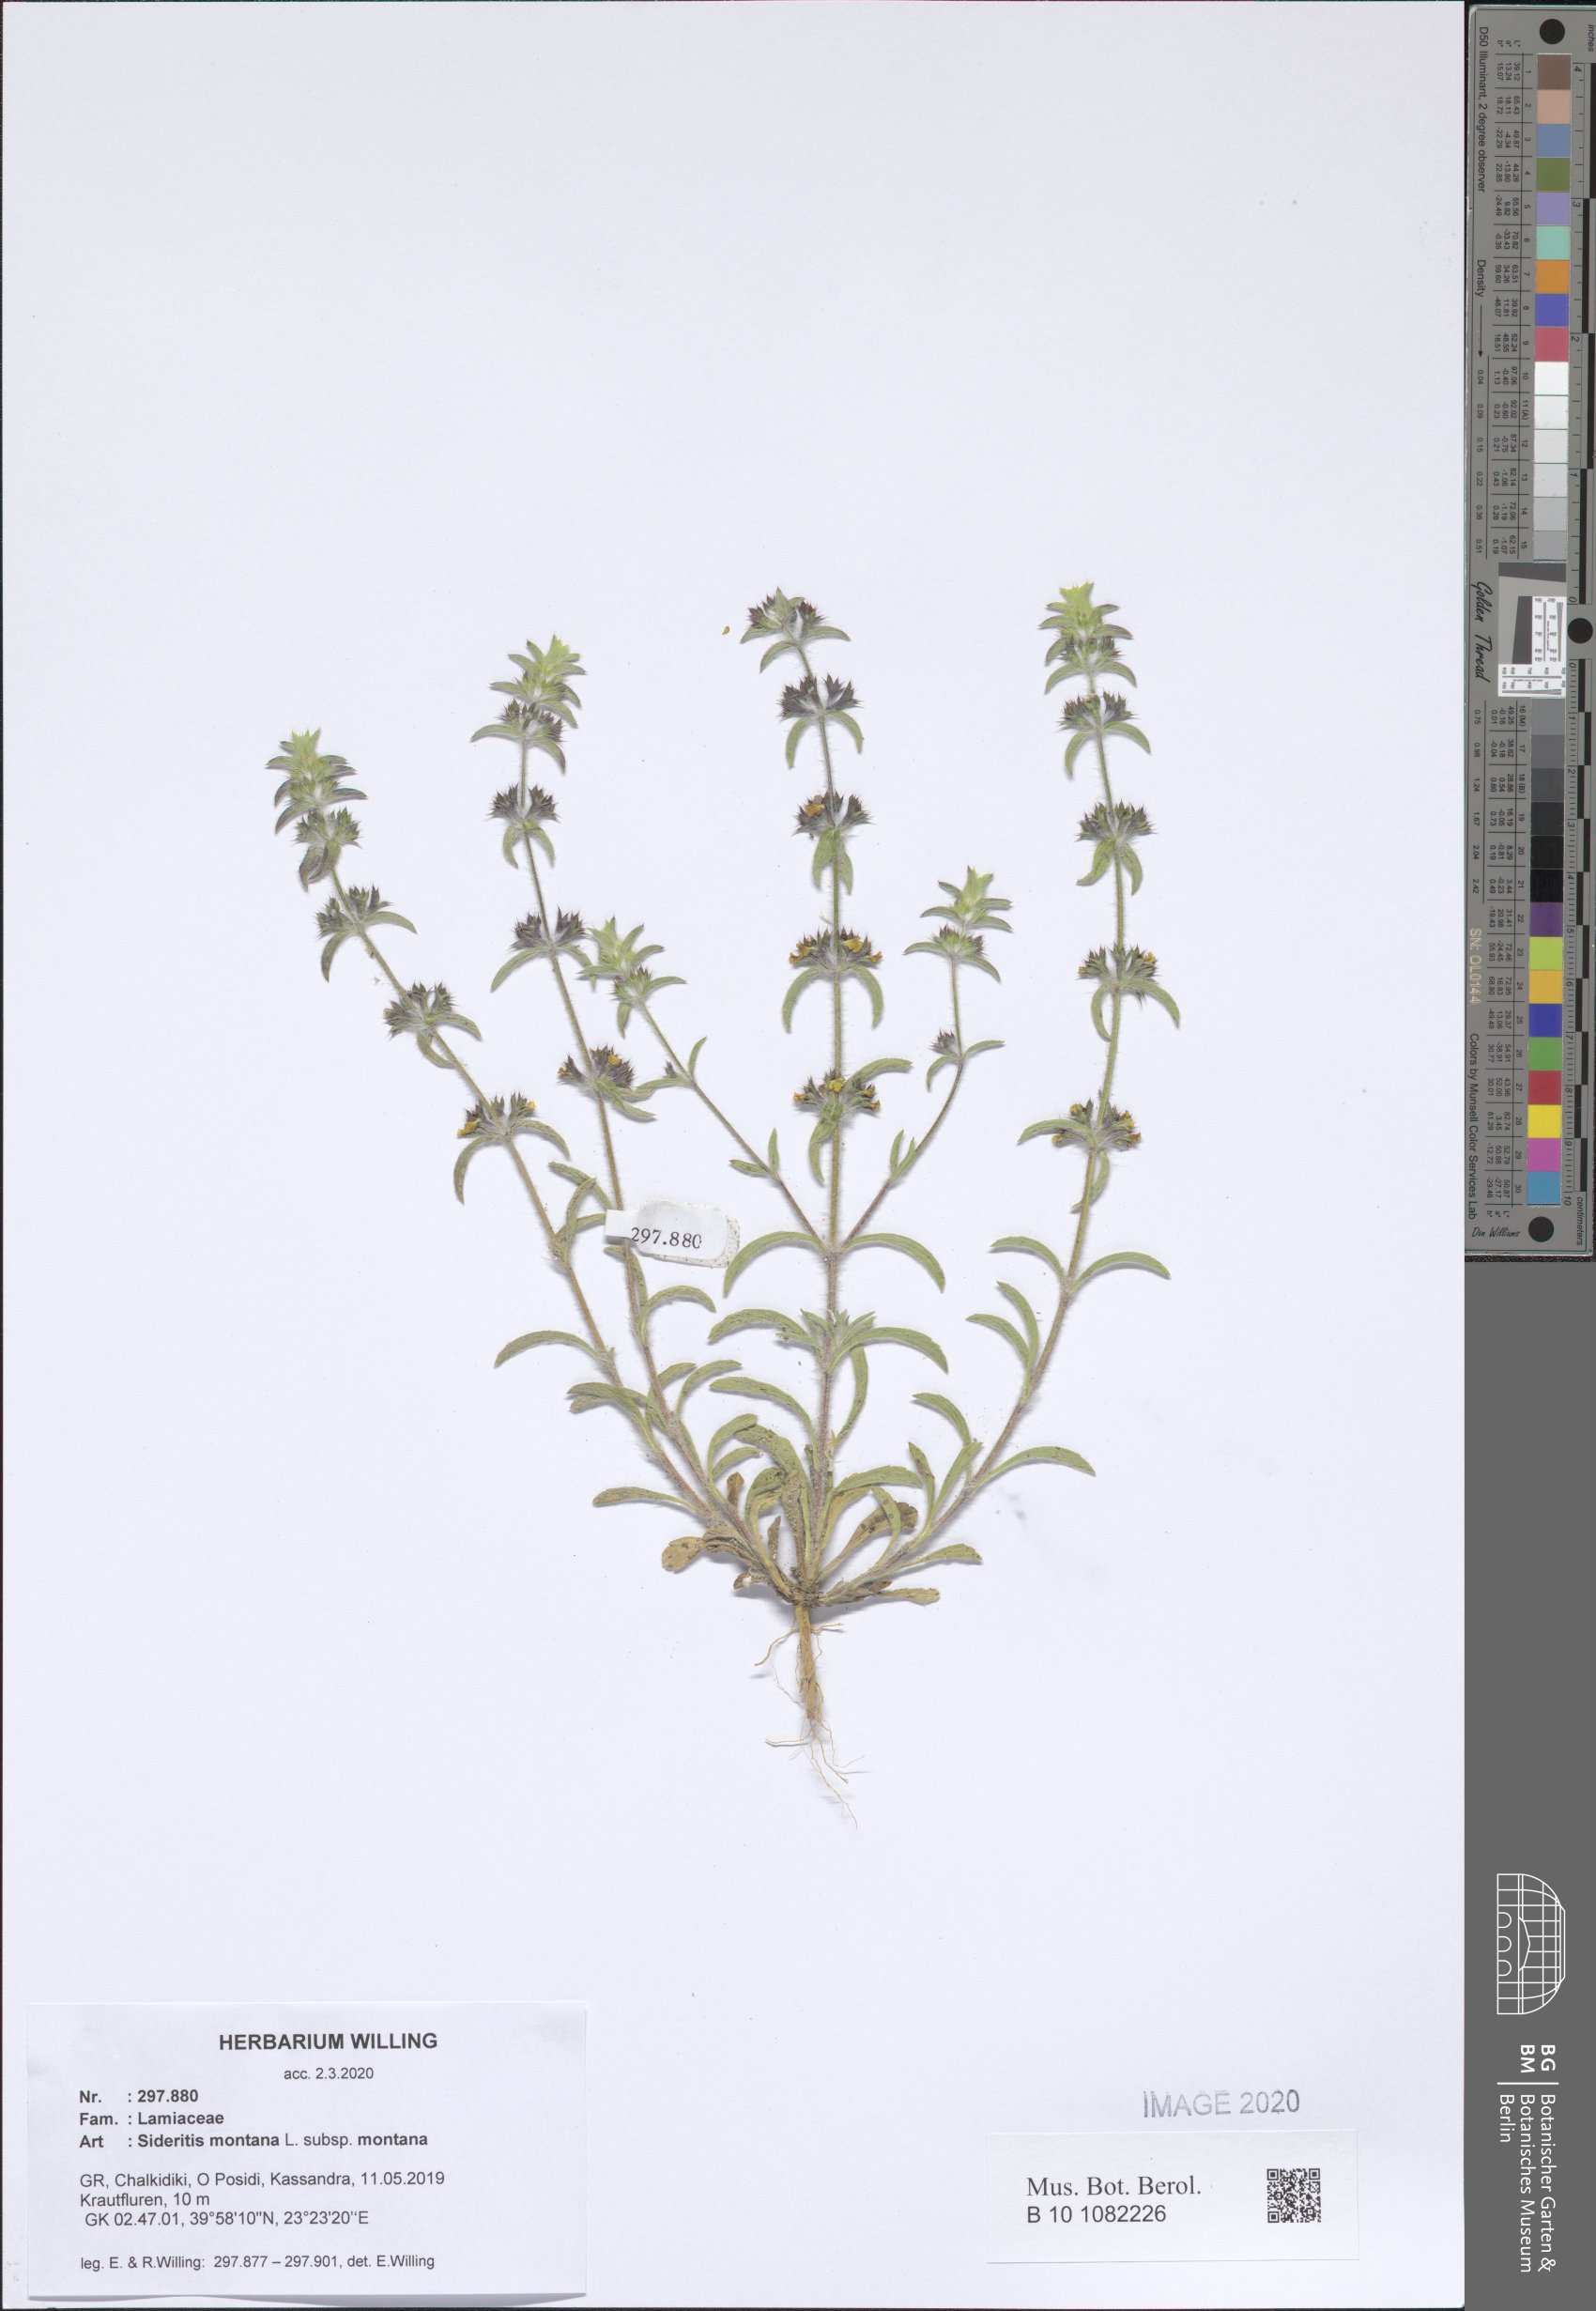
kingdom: Plantae
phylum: Tracheophyta
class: Magnoliopsida
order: Lamiales
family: Lamiaceae
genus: Sideritis
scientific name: Sideritis montana
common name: Mountain ironwort
